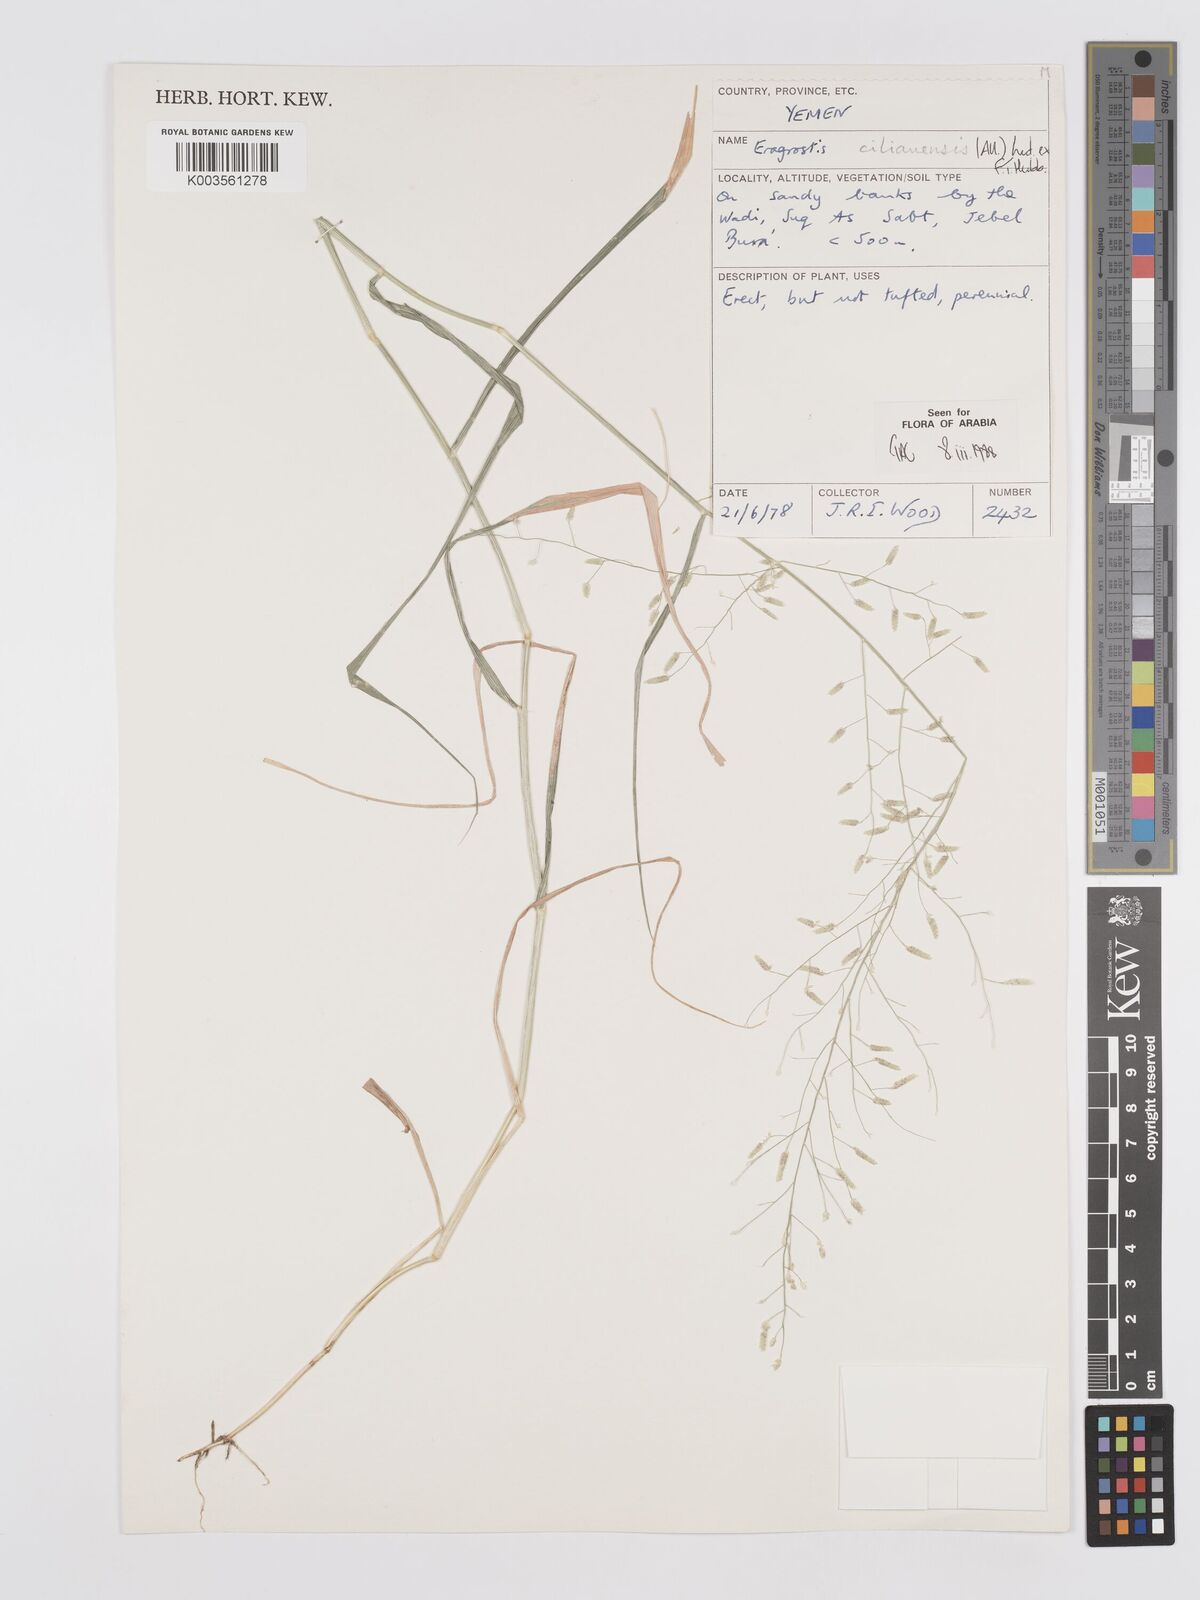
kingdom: Plantae
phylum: Tracheophyta
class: Liliopsida
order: Poales
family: Poaceae
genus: Eragrostis
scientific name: Eragrostis cilianensis
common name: Stinkgrass
